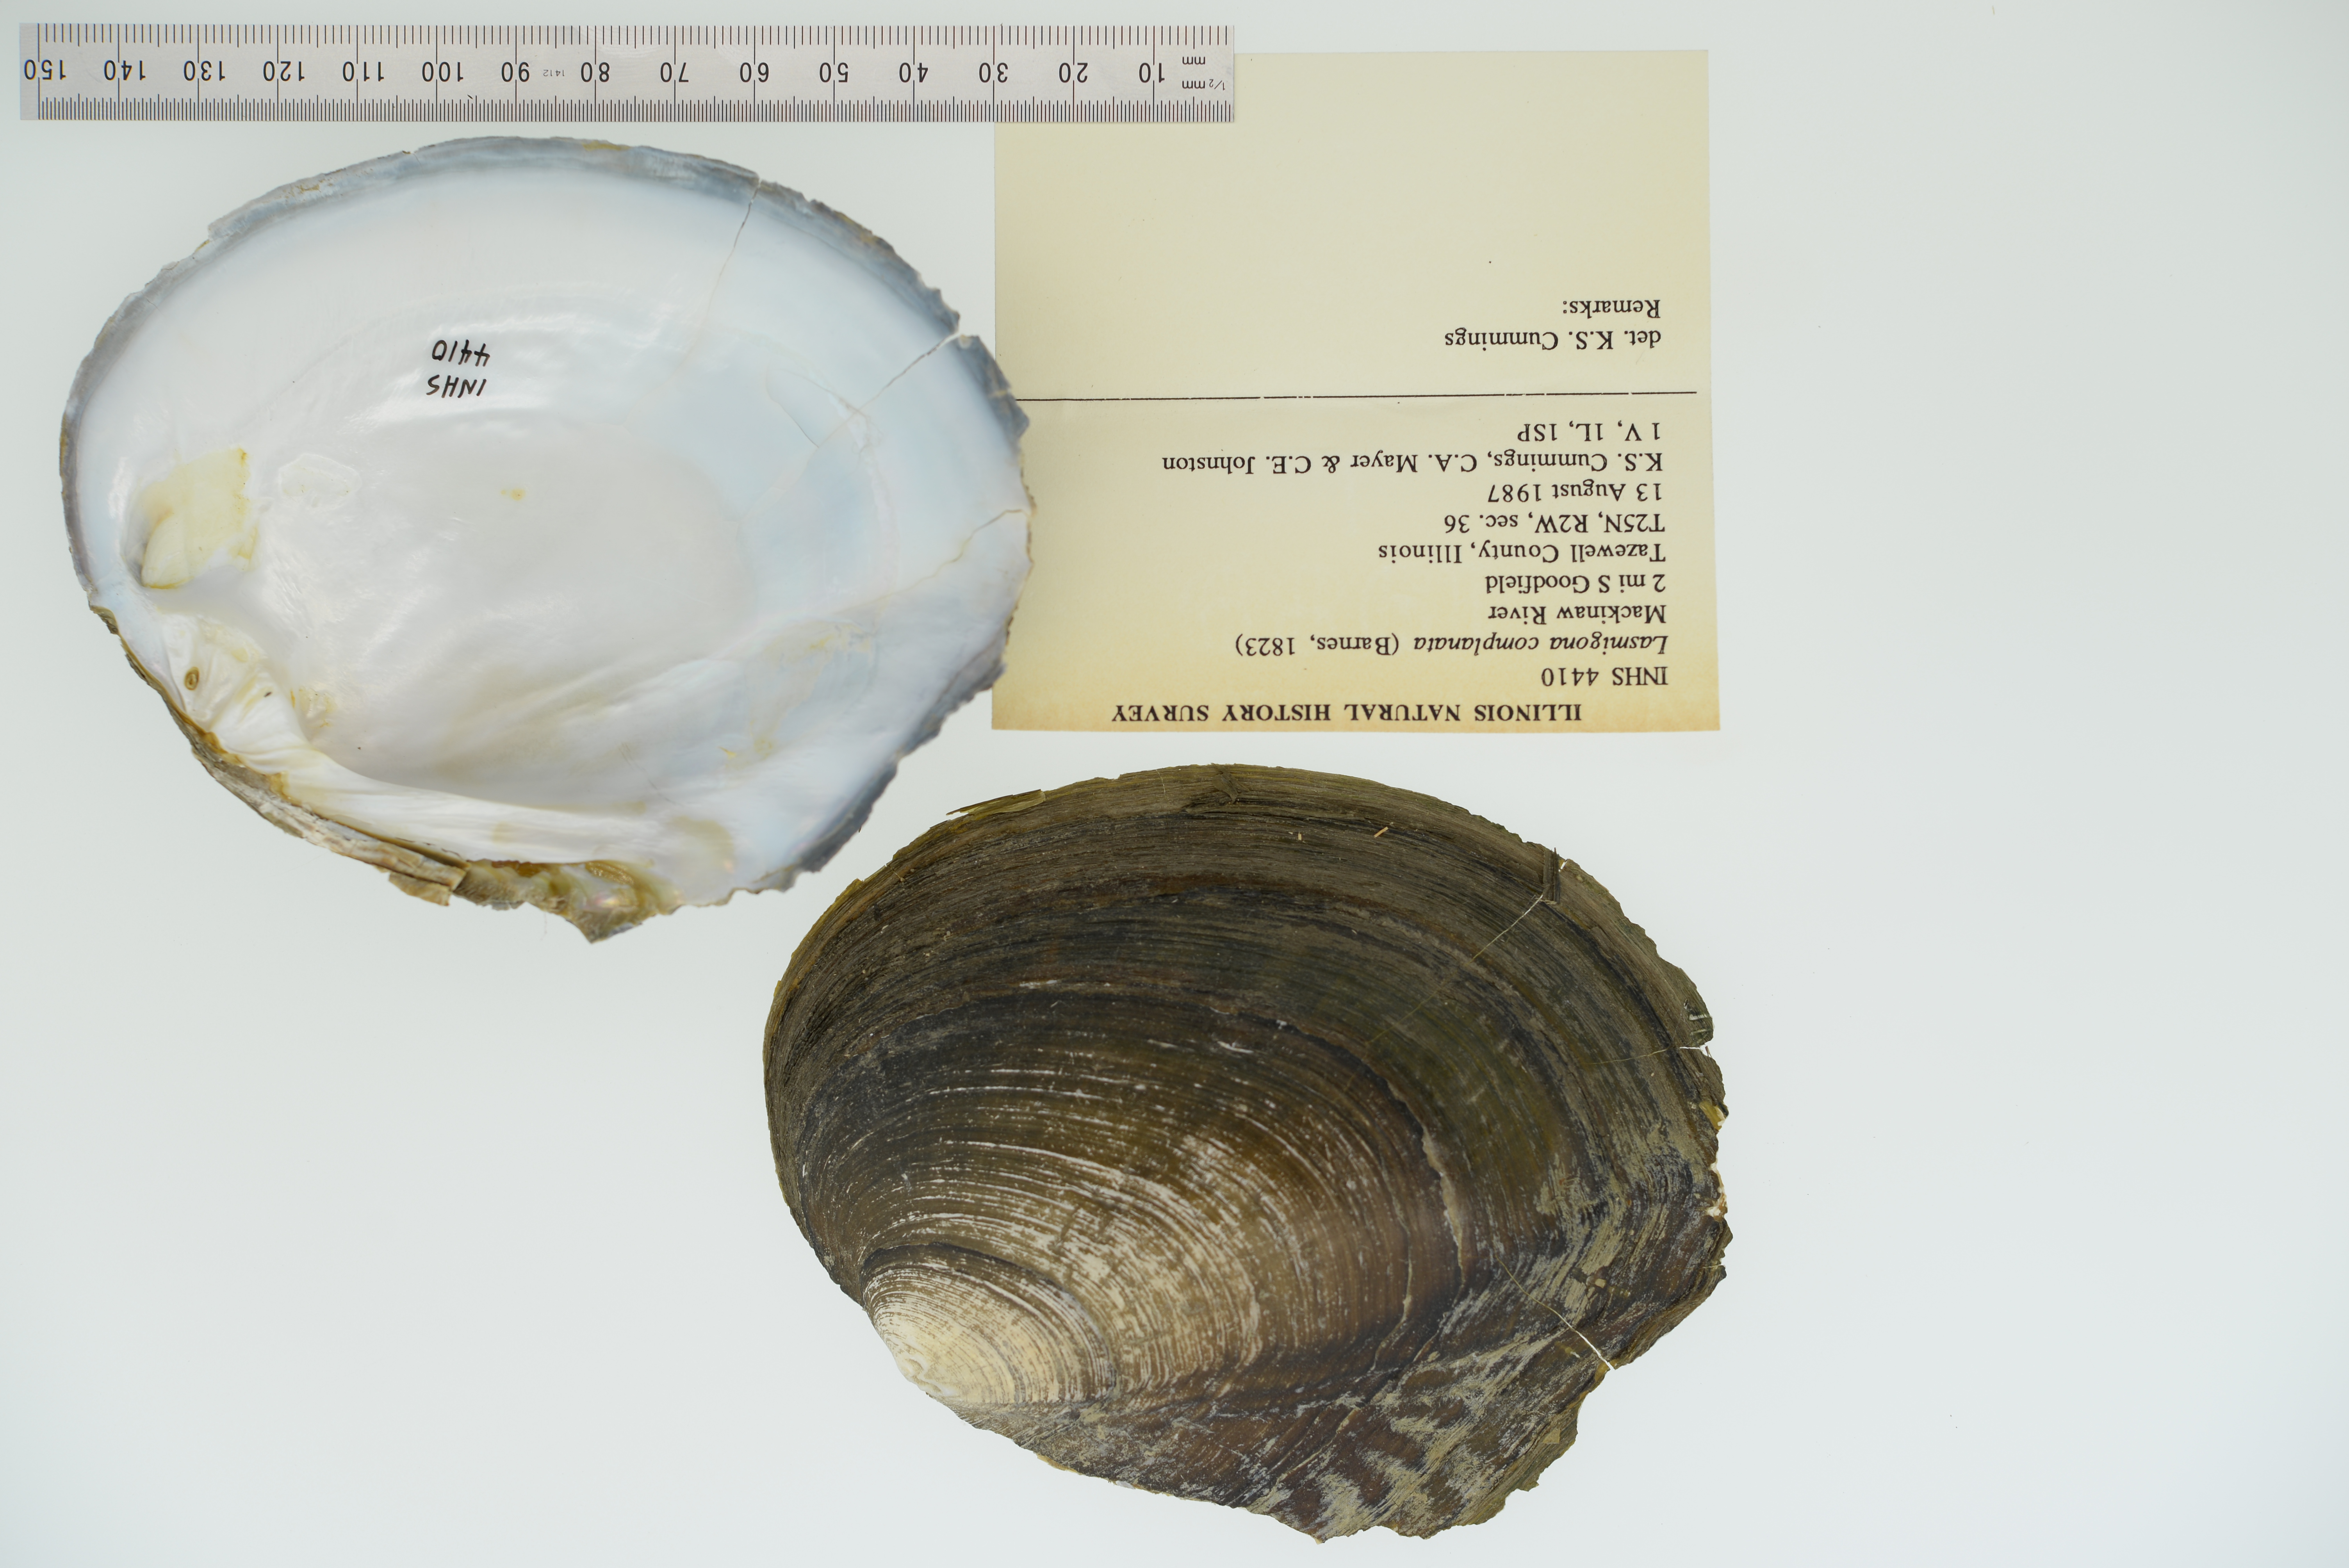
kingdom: Animalia
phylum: Mollusca
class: Bivalvia
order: Unionida
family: Unionidae
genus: Lasmigona
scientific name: Lasmigona complanata
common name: White heelsplitter
